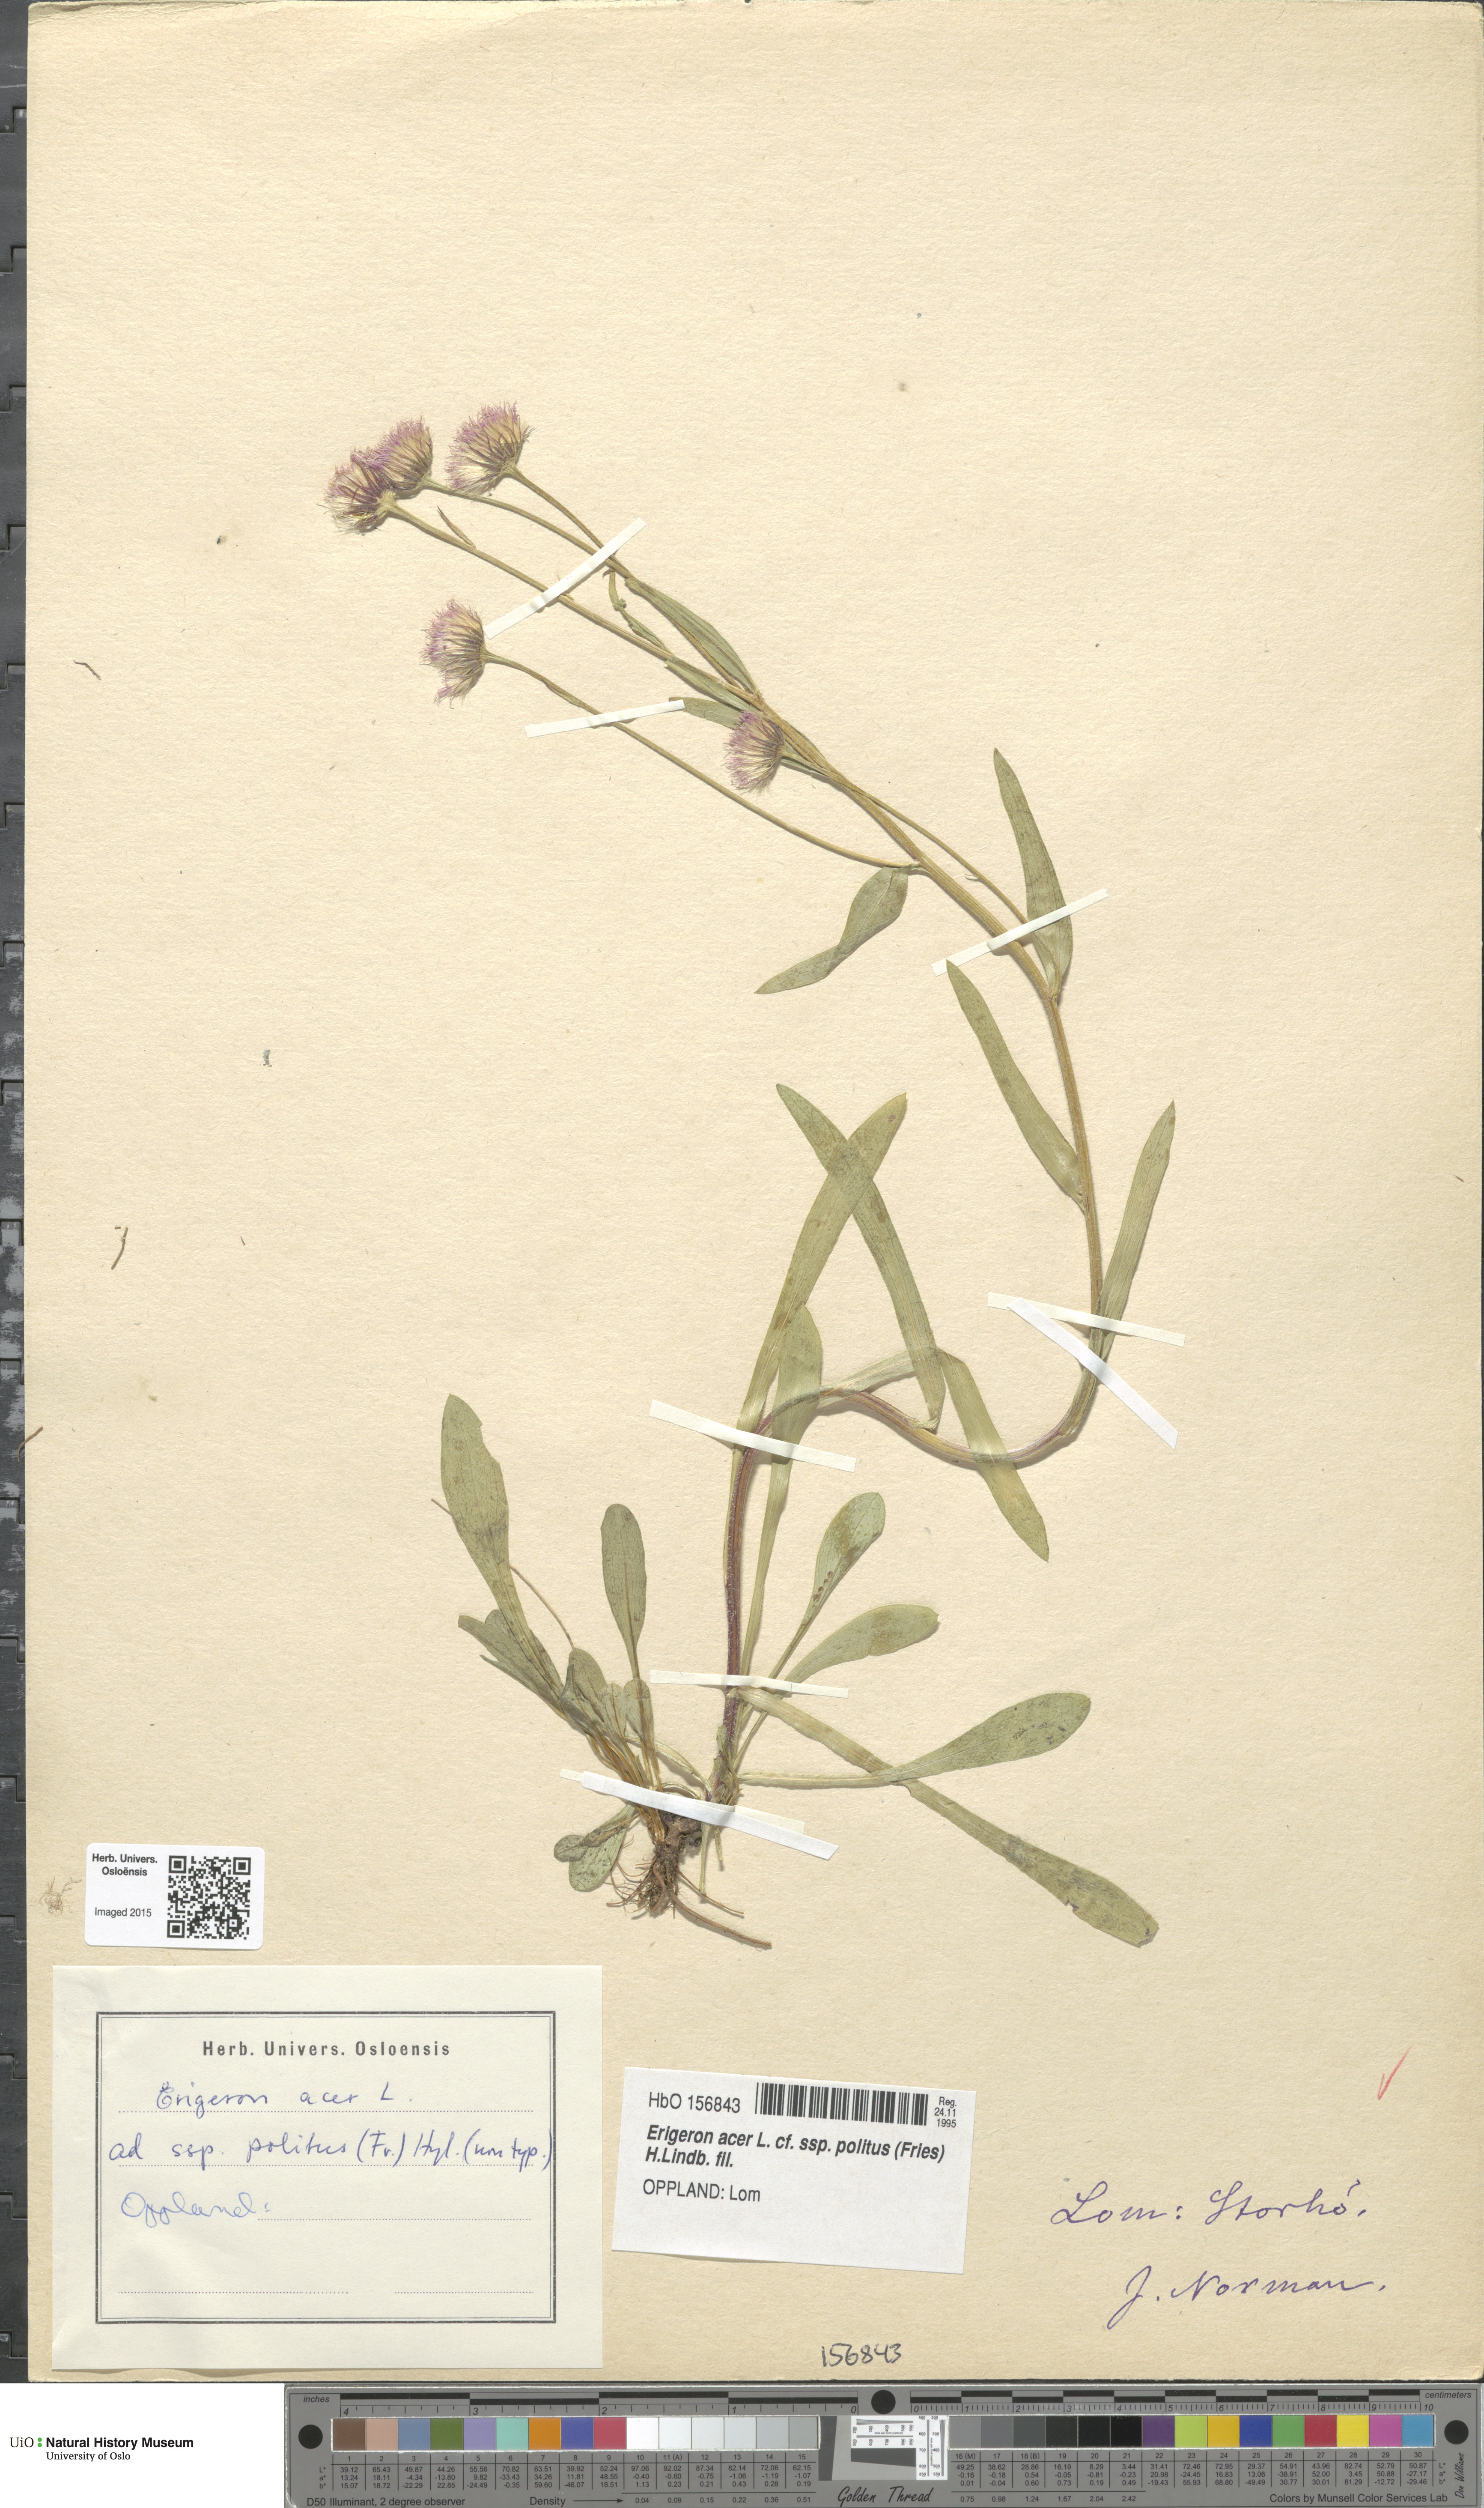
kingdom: Plantae
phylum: Tracheophyta
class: Magnoliopsida
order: Asterales
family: Asteraceae
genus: Erigeron
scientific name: Erigeron politus
